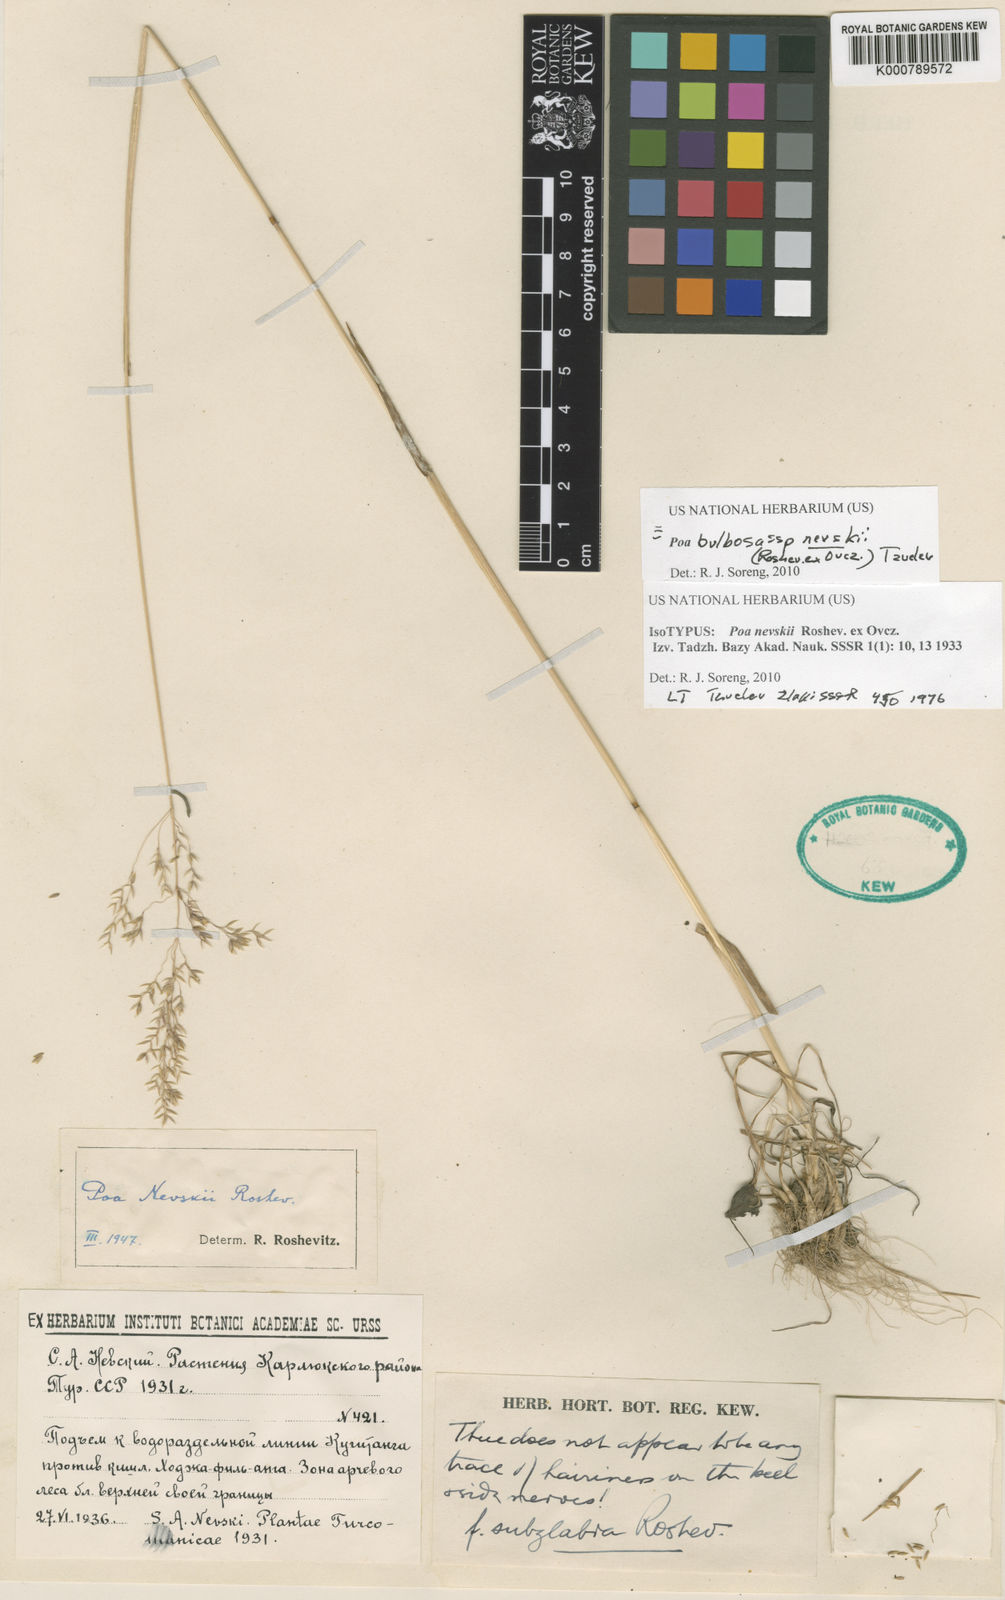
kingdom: Plantae
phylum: Tracheophyta
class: Liliopsida
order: Poales
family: Poaceae
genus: Poa
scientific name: Poa bulbosa
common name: Bulbous bluegrass
